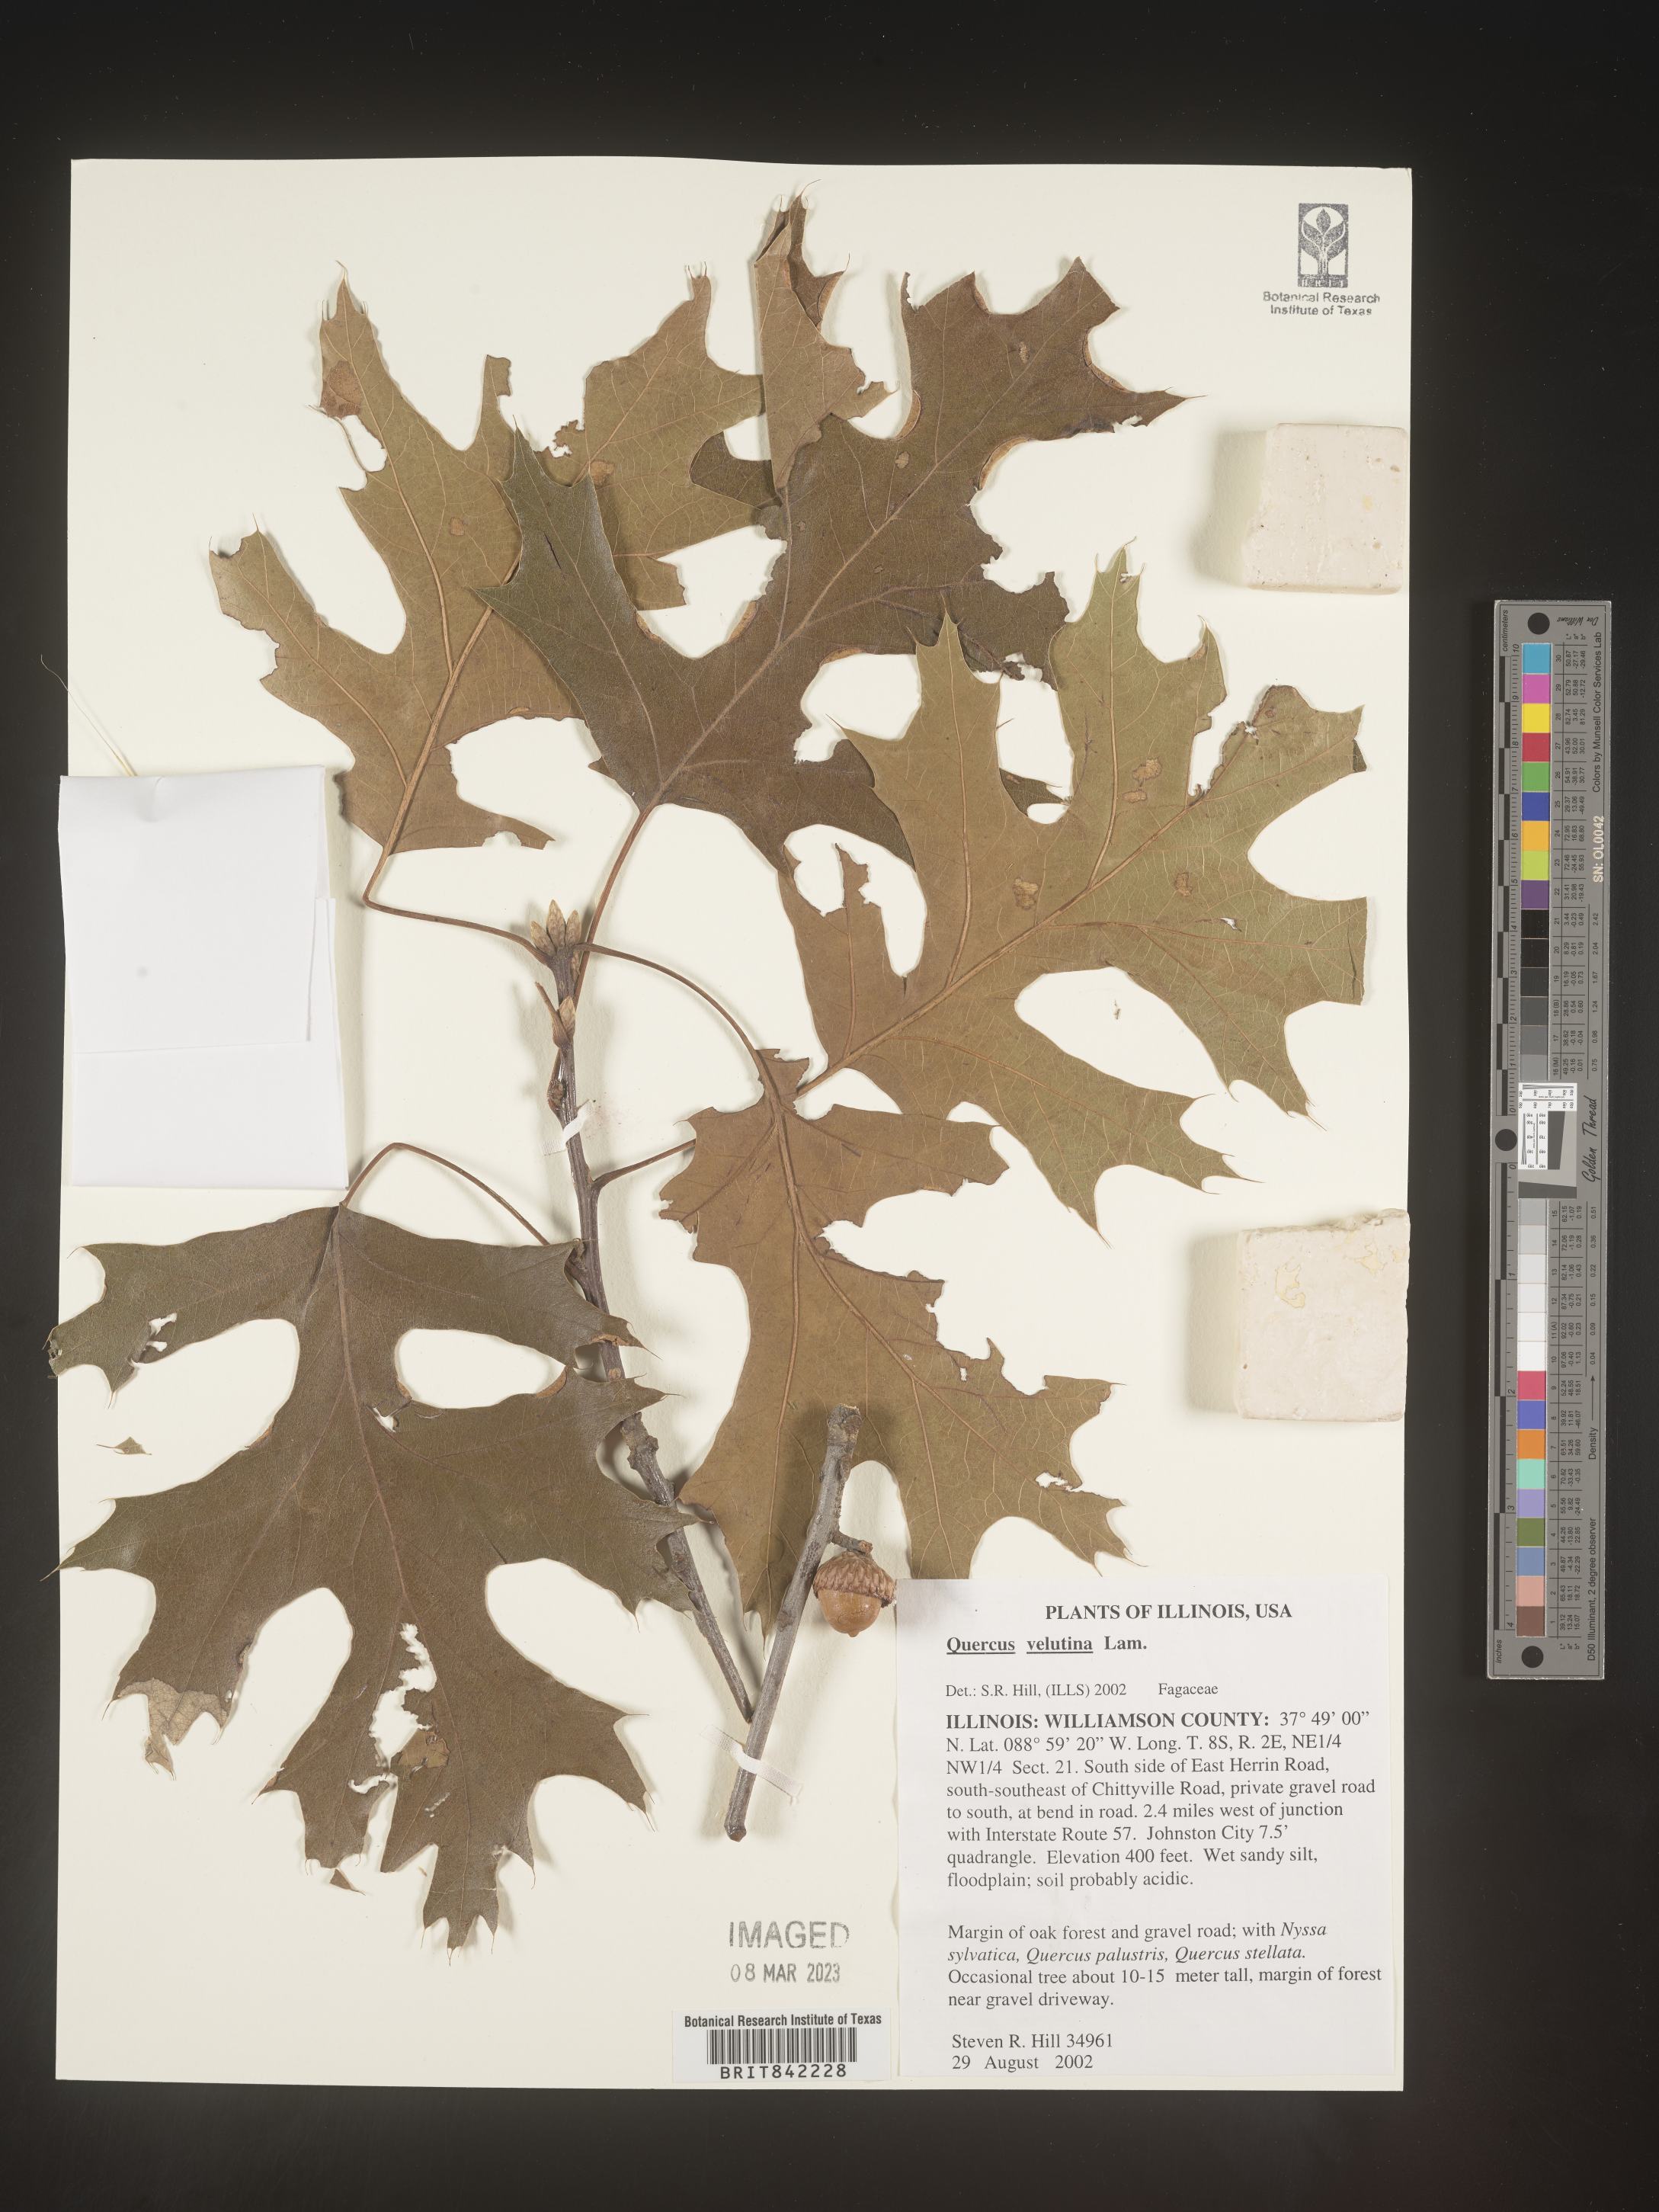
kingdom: Plantae
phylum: Tracheophyta
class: Magnoliopsida
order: Fagales
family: Fagaceae
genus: Quercus
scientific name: Quercus velutina
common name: Black oak
